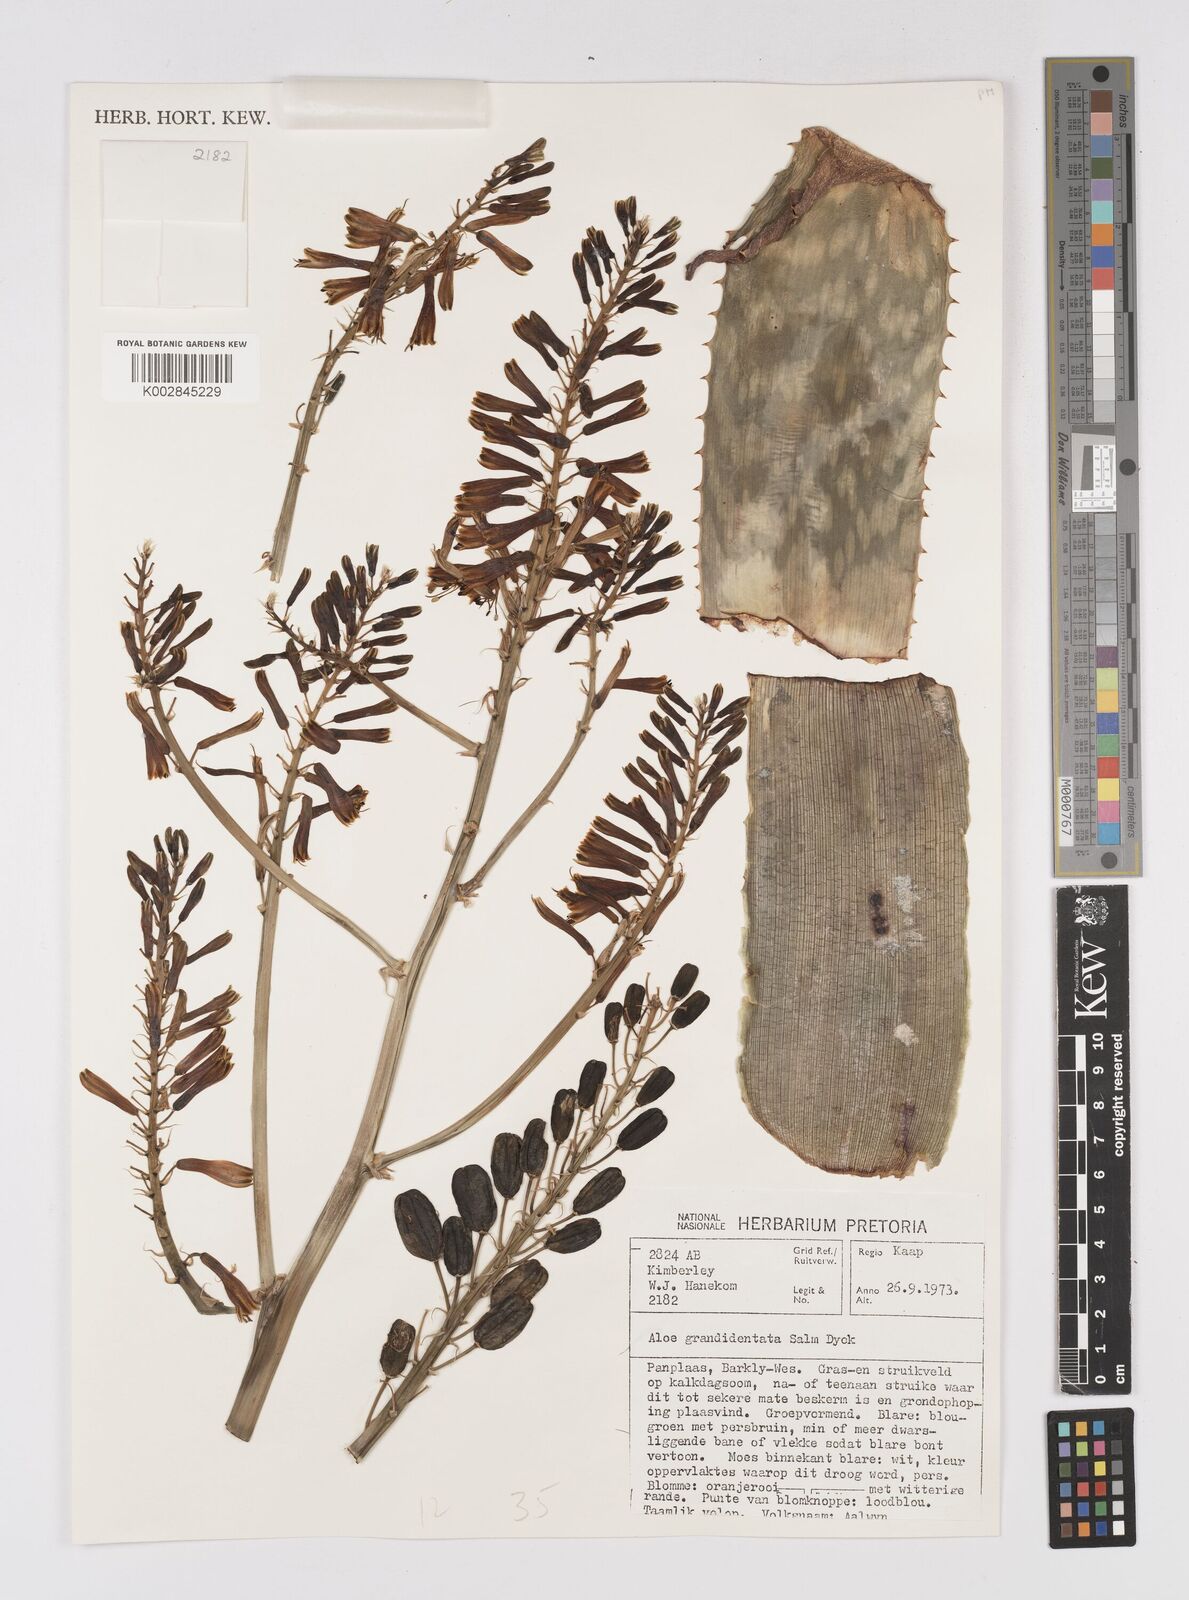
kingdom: Plantae
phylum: Tracheophyta
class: Liliopsida
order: Asparagales
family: Asphodelaceae
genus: Aloe
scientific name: Aloe grandidentata
